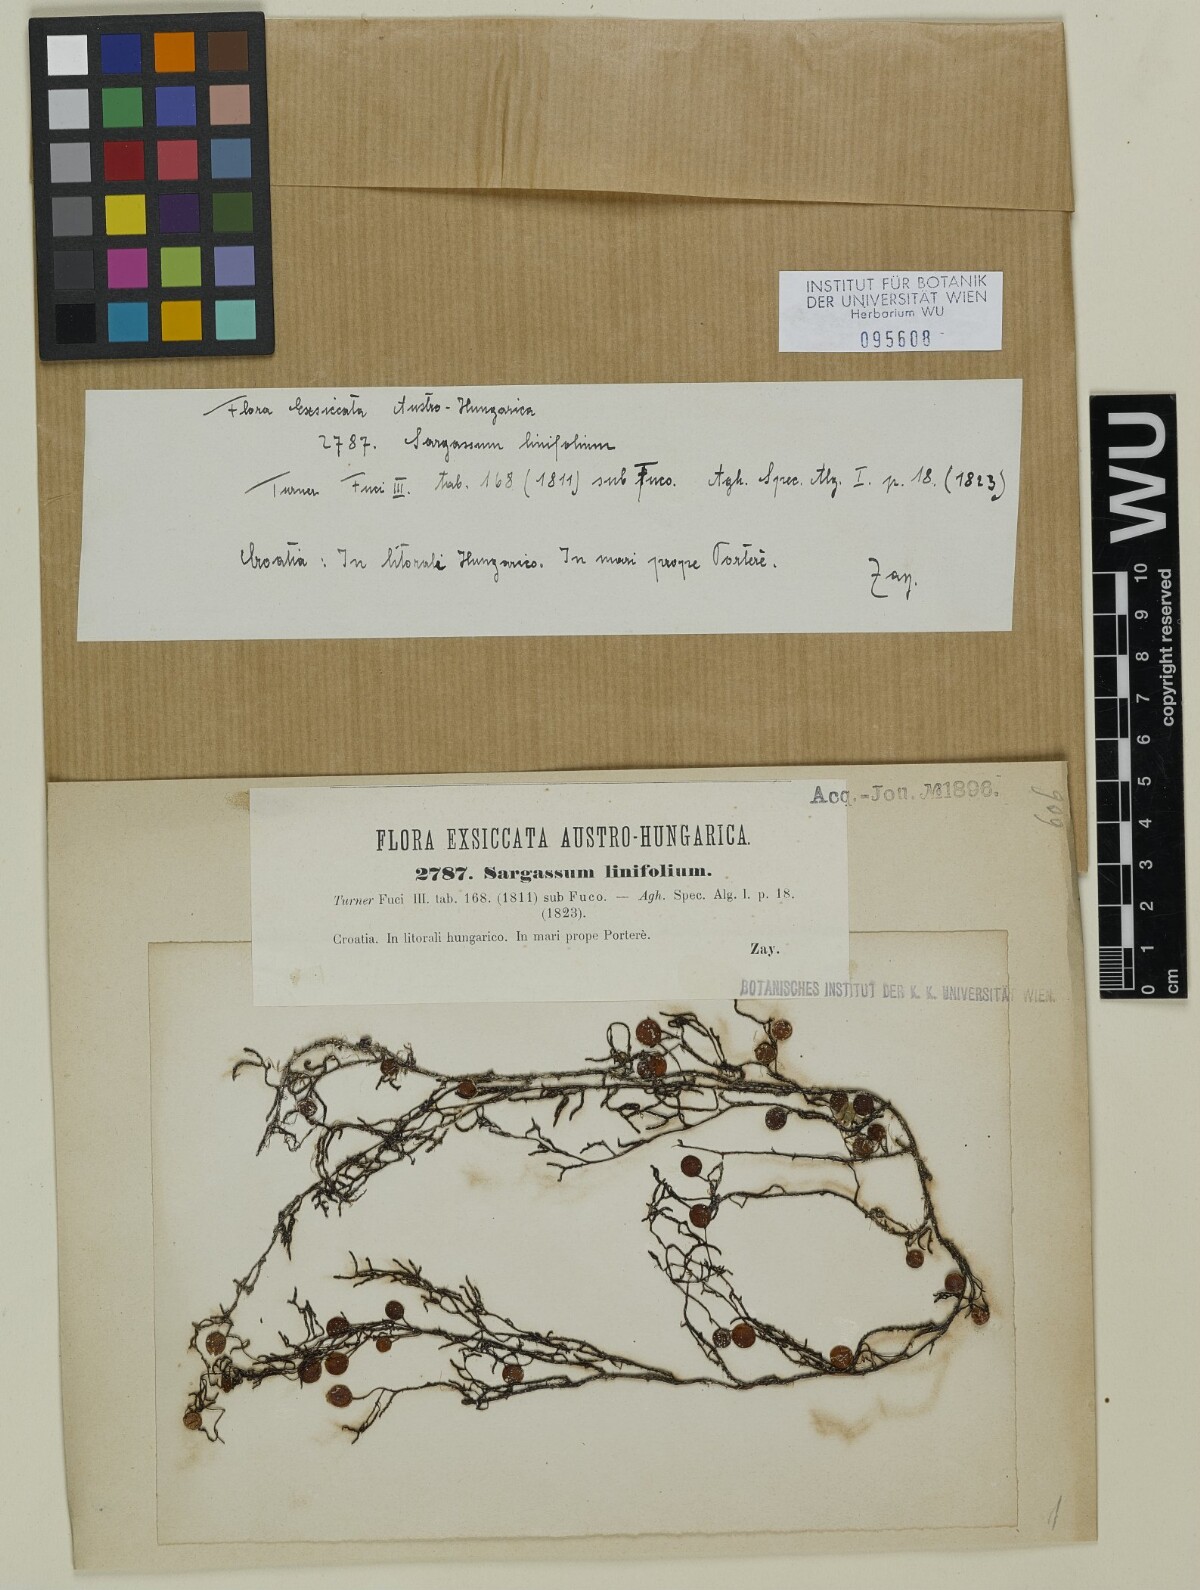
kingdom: Chromista
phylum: Ochrophyta
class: Phaeophyceae
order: Fucales
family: Sargassaceae
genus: Sargassum
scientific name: Sargassum acinarium
